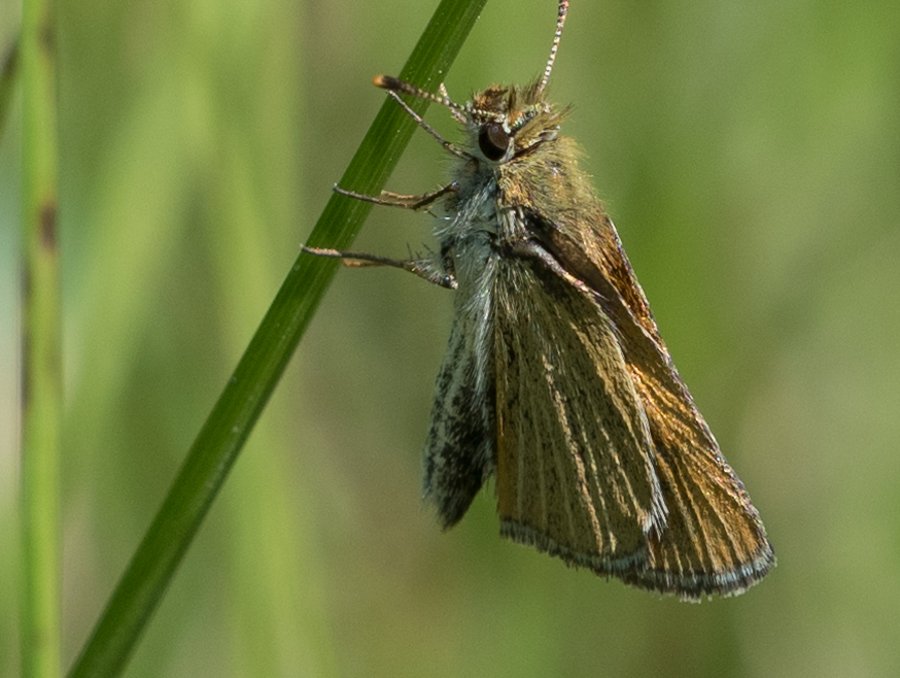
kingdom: Animalia
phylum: Arthropoda
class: Insecta
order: Lepidoptera
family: Hesperiidae
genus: Oarisma
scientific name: Oarisma garita
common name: Garita Skipperling
